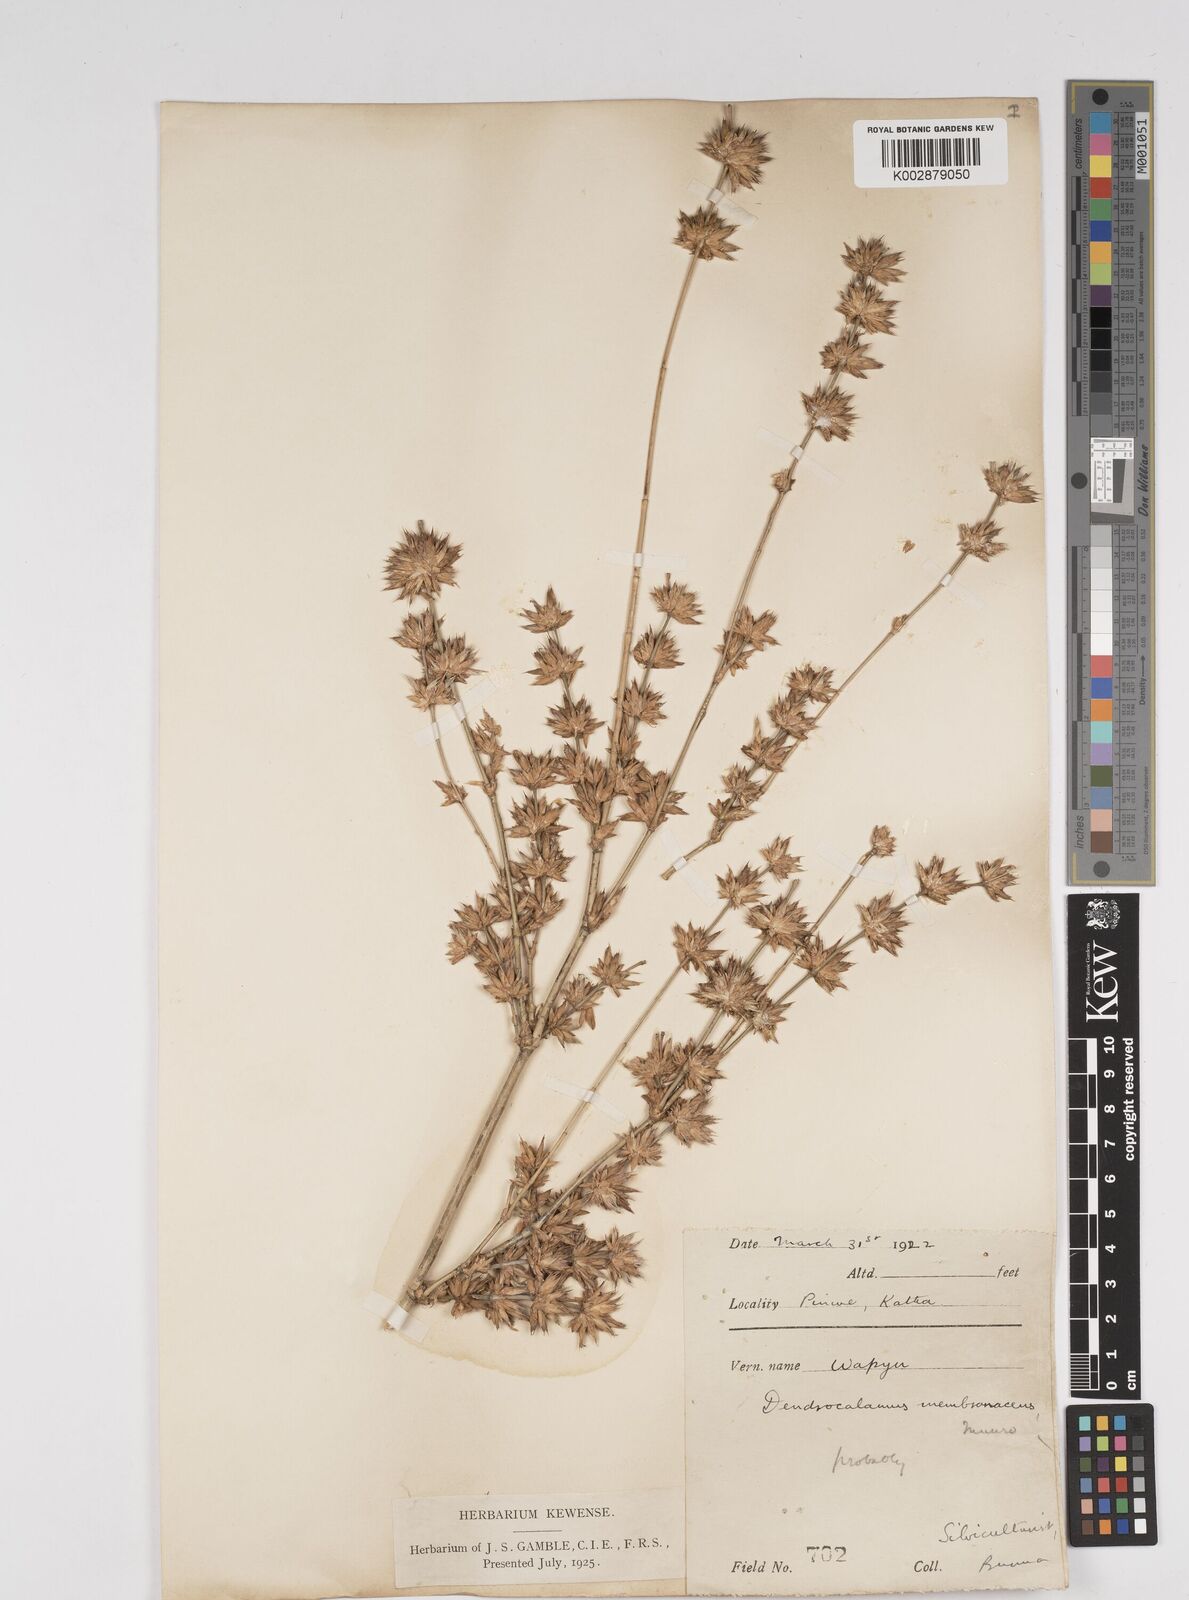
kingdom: Plantae
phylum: Tracheophyta
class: Liliopsida
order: Poales
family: Poaceae
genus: Dendrocalamus
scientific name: Dendrocalamus membranaceus
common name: White bamboo
